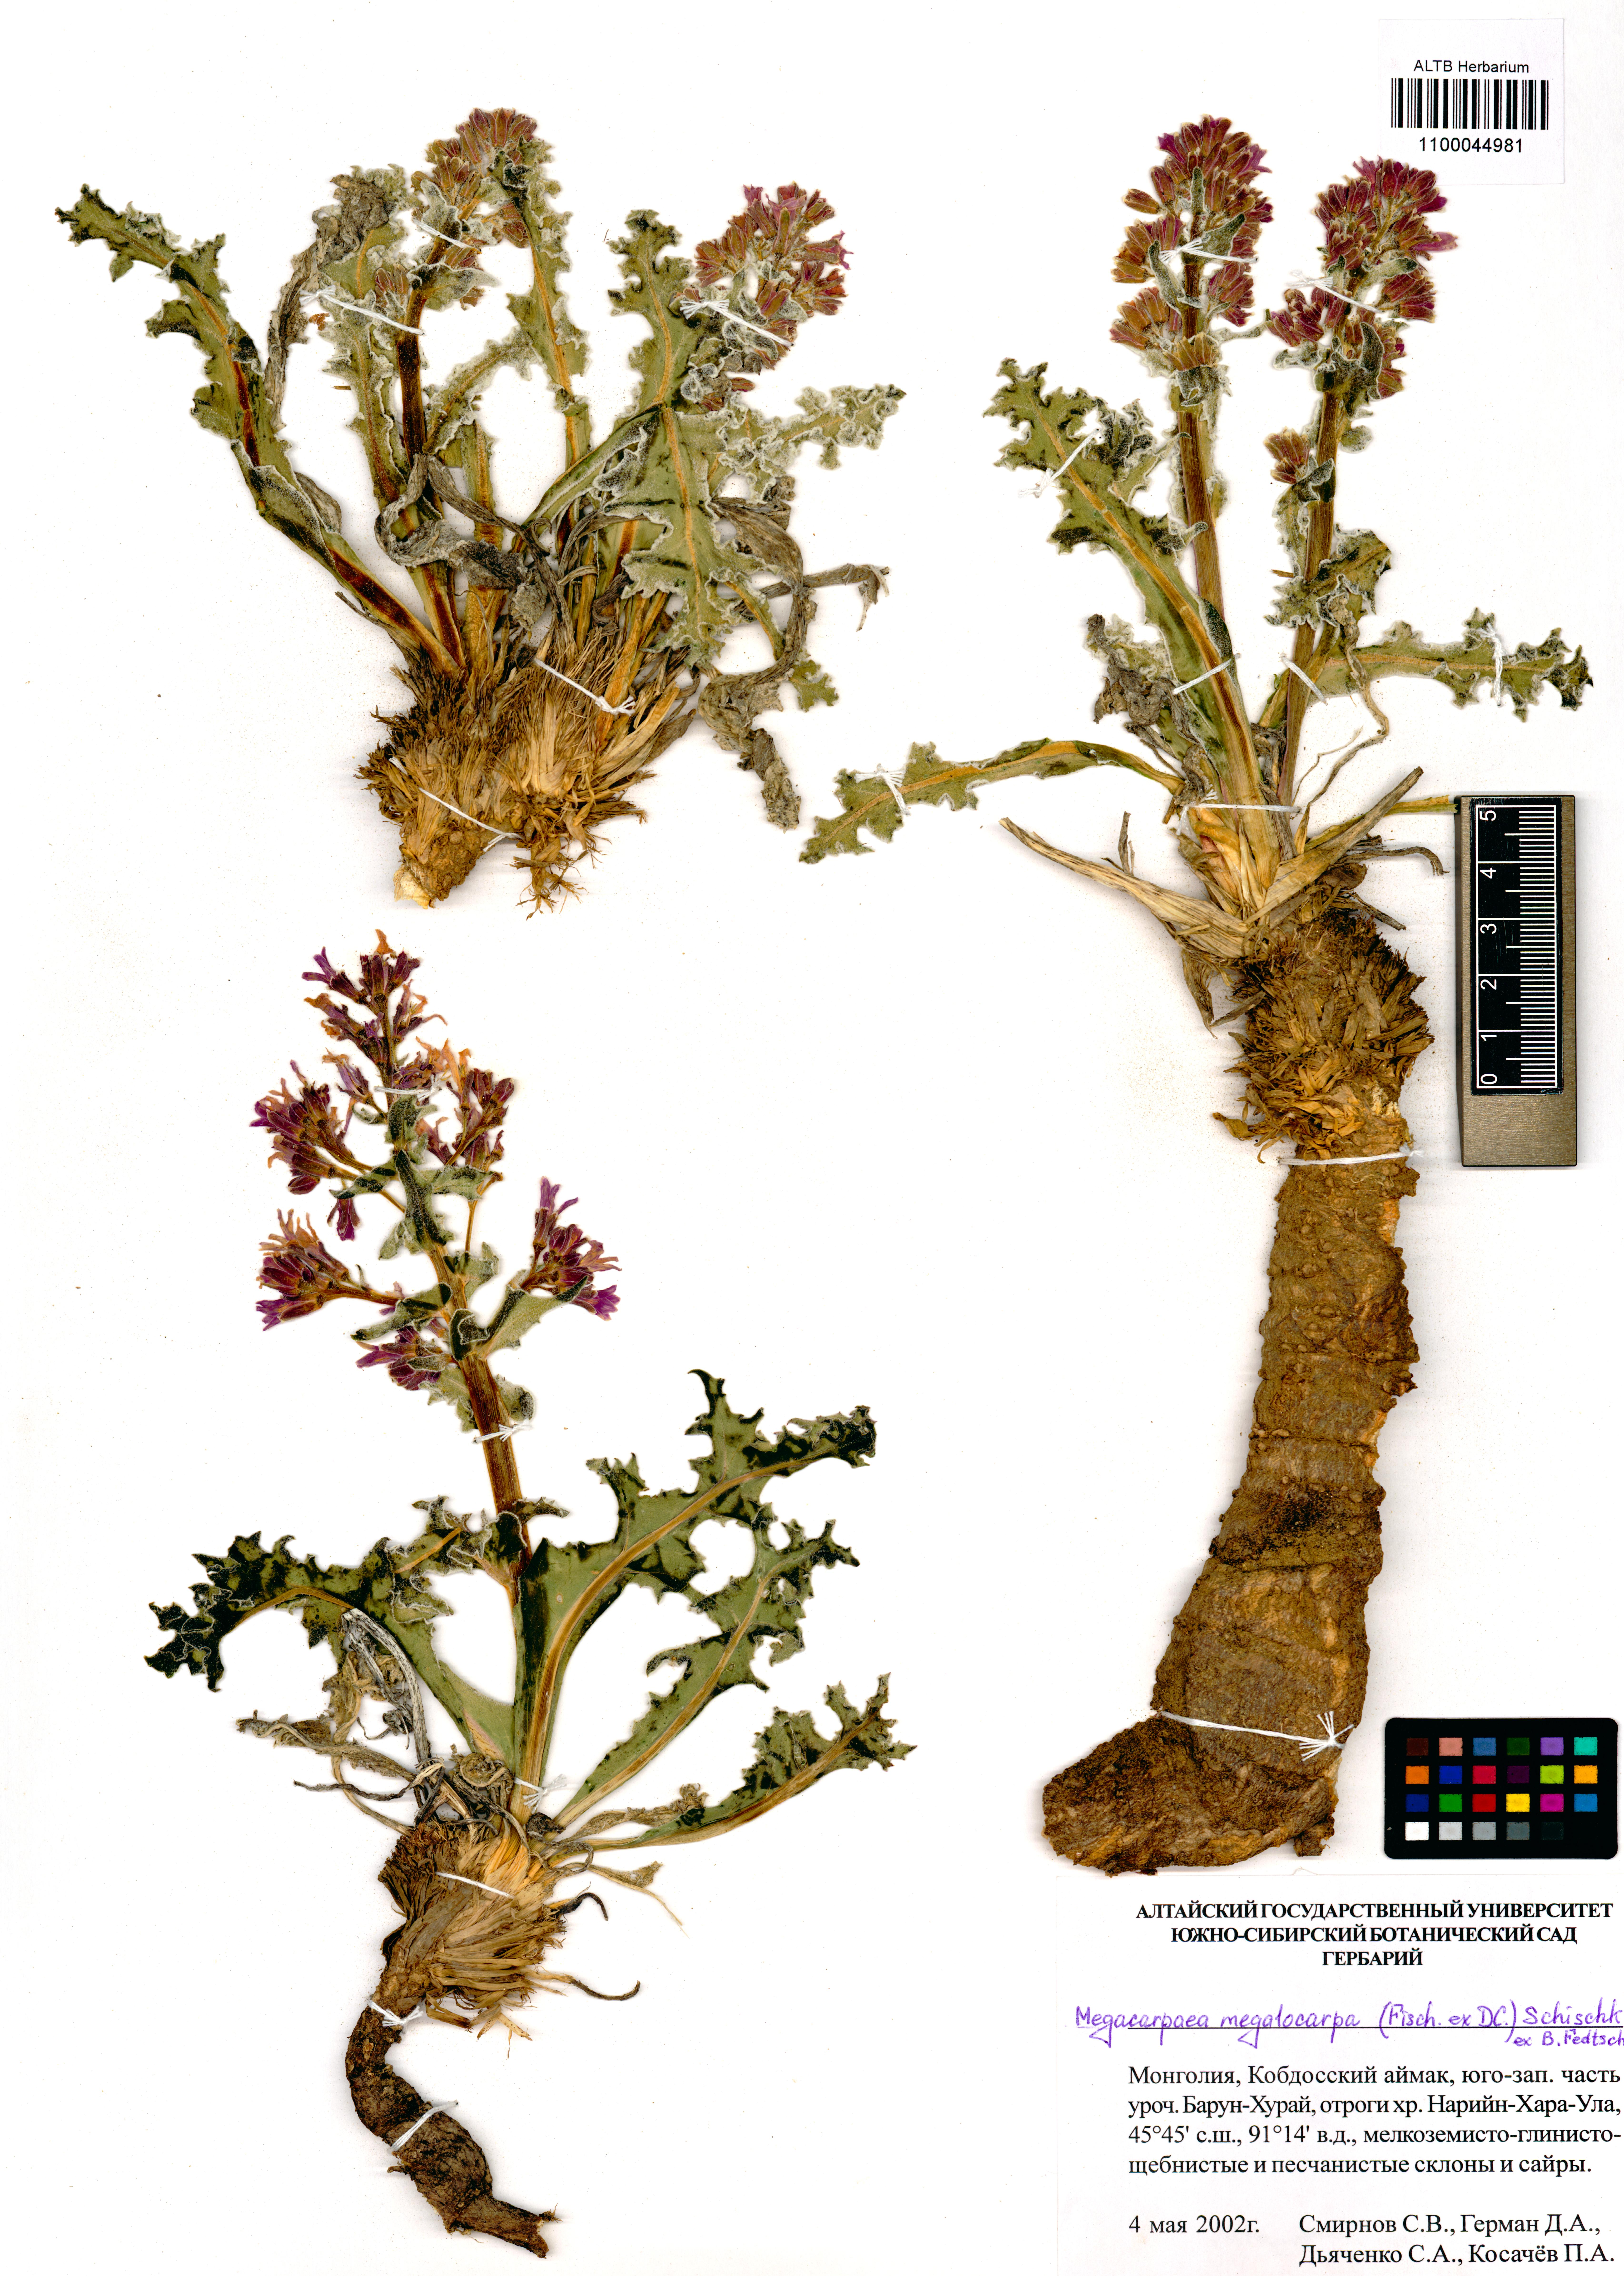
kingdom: Plantae
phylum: Tracheophyta
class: Magnoliopsida
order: Brassicales
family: Brassicaceae
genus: Megacarpaea
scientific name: Megacarpaea megalocarpa
